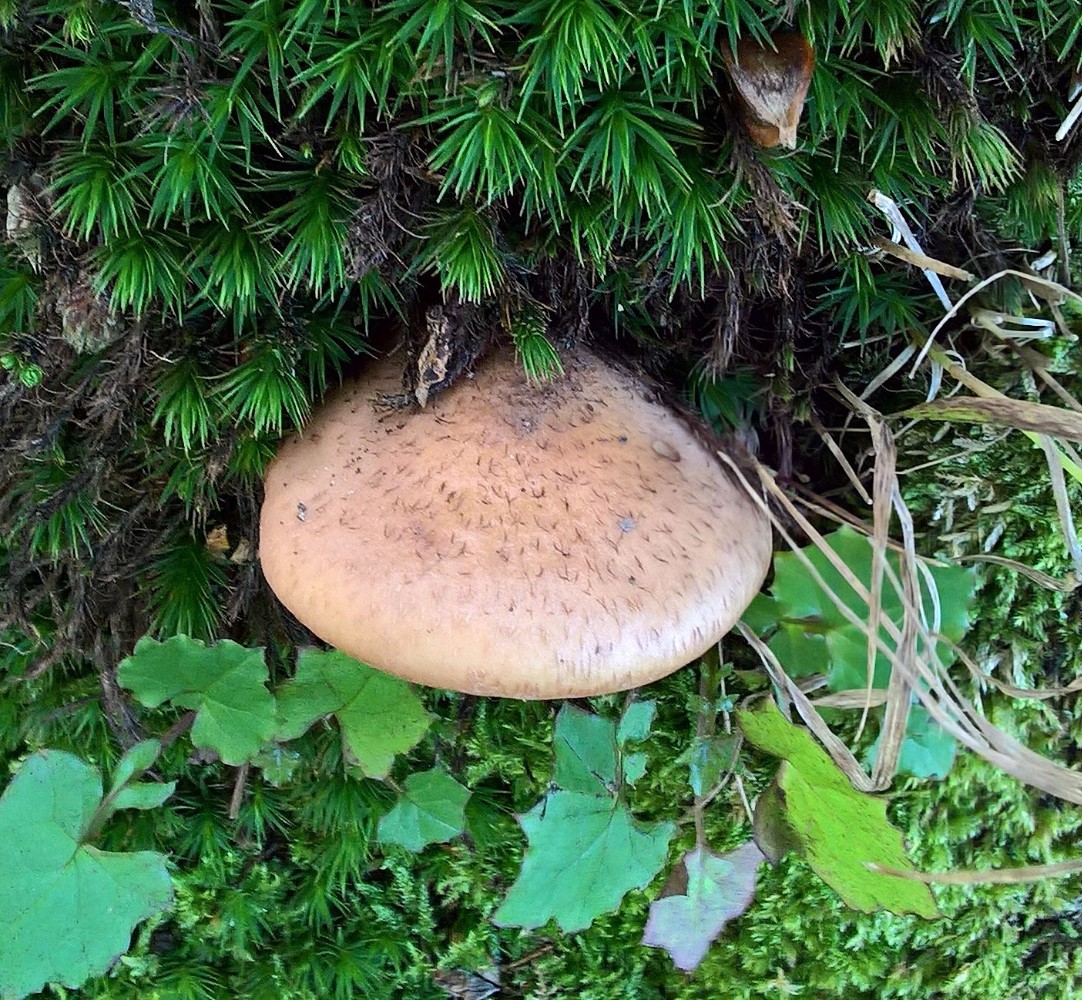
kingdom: Fungi
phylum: Basidiomycota
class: Agaricomycetes
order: Agaricales
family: Physalacriaceae
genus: Armillaria
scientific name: Armillaria lutea
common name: køllestokket honningsvamp
